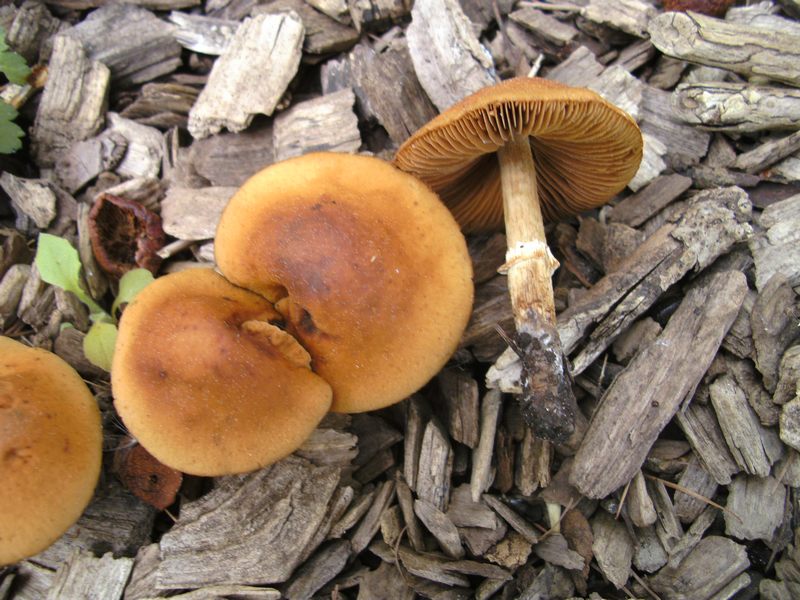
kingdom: Fungi
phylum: Basidiomycota
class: Agaricomycetes
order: Agaricales
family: Bolbitiaceae
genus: Conocybe
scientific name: Conocybe aporos
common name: tidlig dansehat
